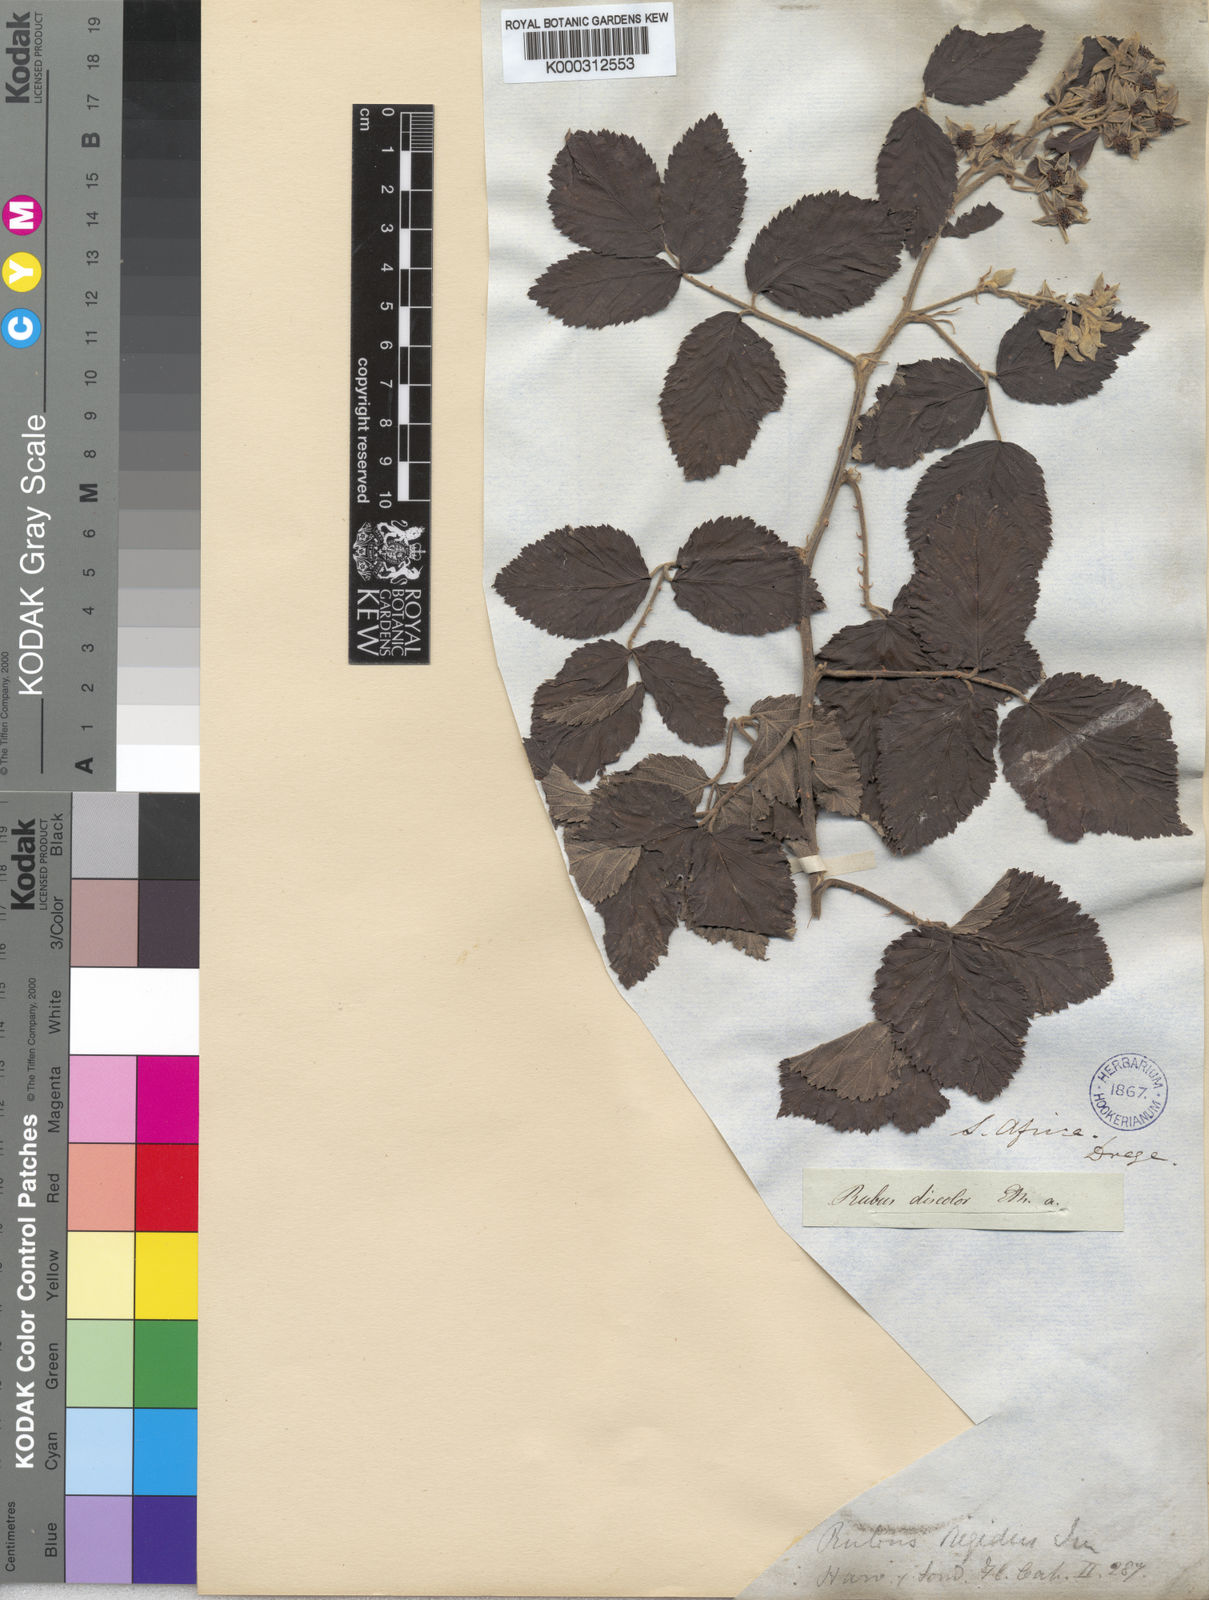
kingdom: Plantae
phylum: Tracheophyta
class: Magnoliopsida
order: Rosales
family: Rosaceae
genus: Rubus
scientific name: Rubus rigidus
